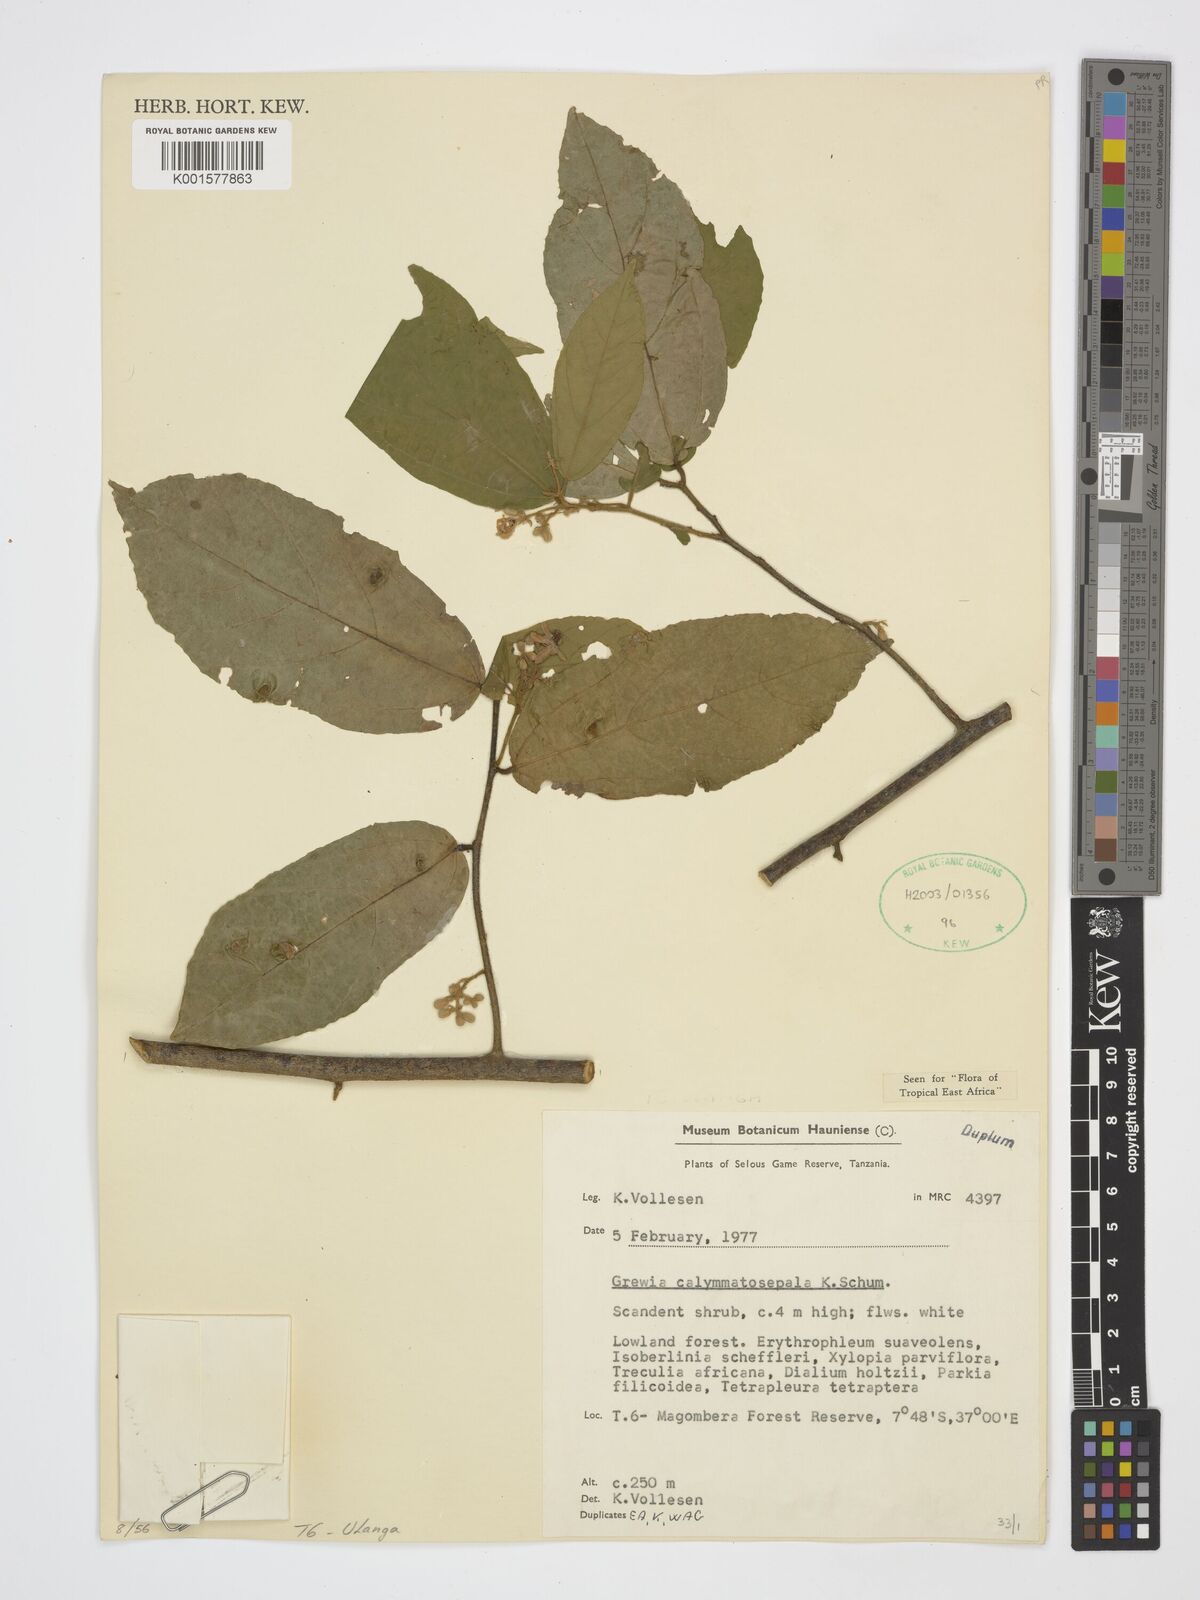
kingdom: Plantae
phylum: Tracheophyta
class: Magnoliopsida
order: Malvales
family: Malvaceae
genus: Microcos
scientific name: Microcos calymmatosepala
